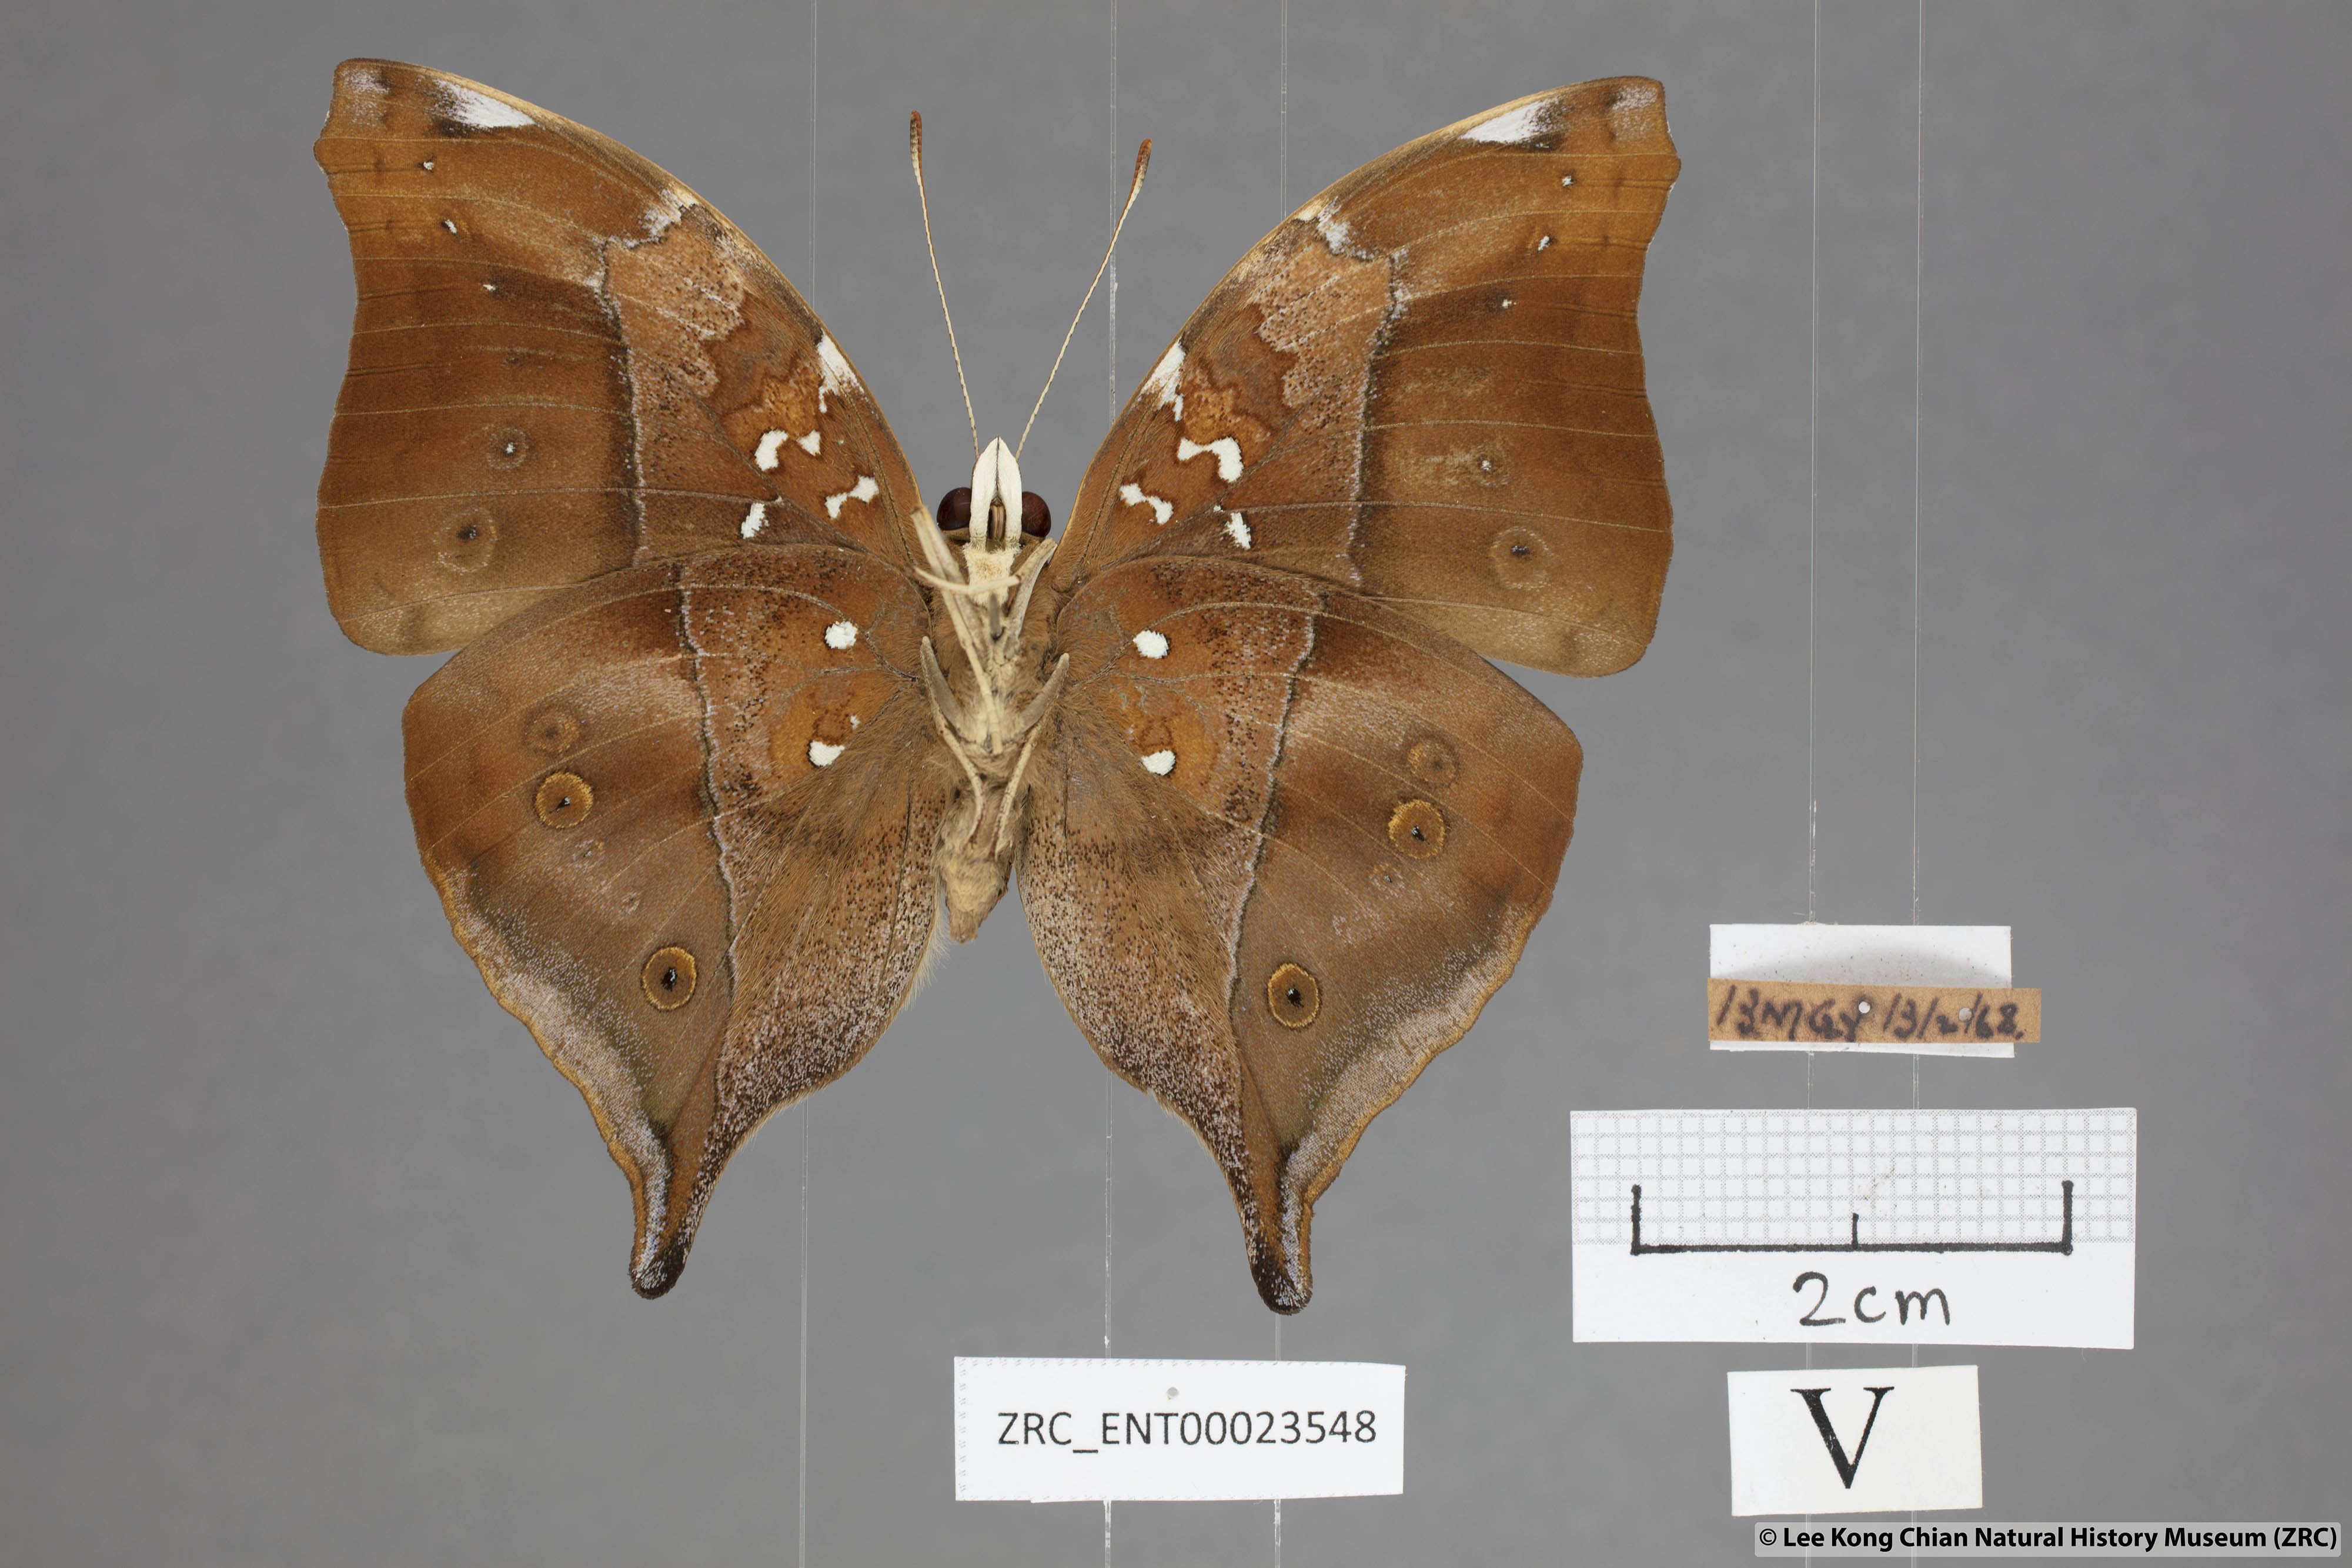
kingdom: Animalia
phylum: Arthropoda
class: Insecta
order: Lepidoptera
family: Nymphalidae
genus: Doleschallia
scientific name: Doleschallia bisaltide
